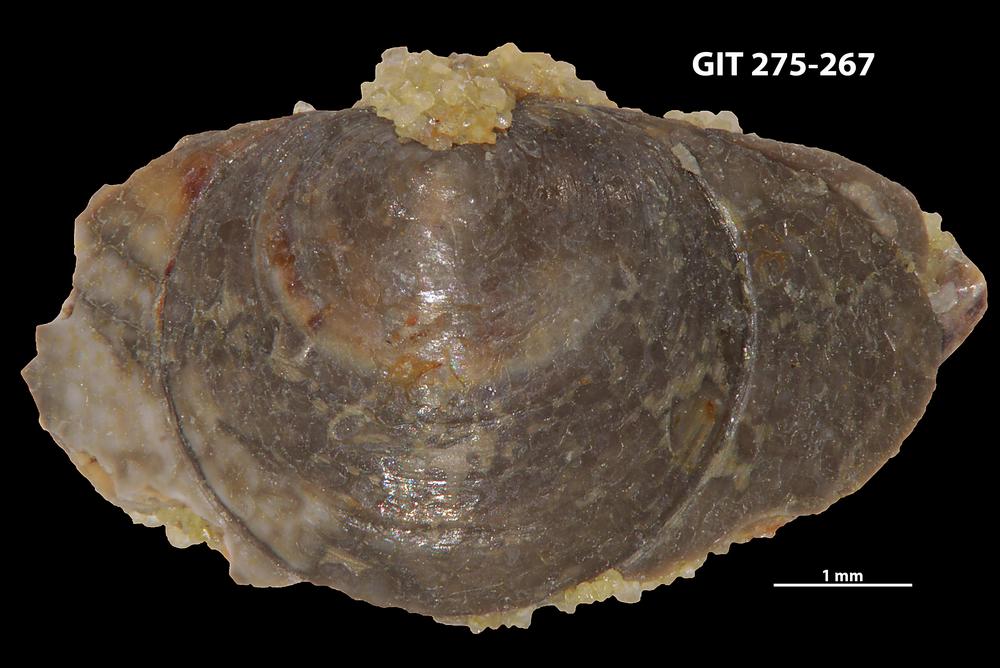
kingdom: Animalia
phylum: Porifera
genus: Ungula
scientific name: Ungula ingricus
